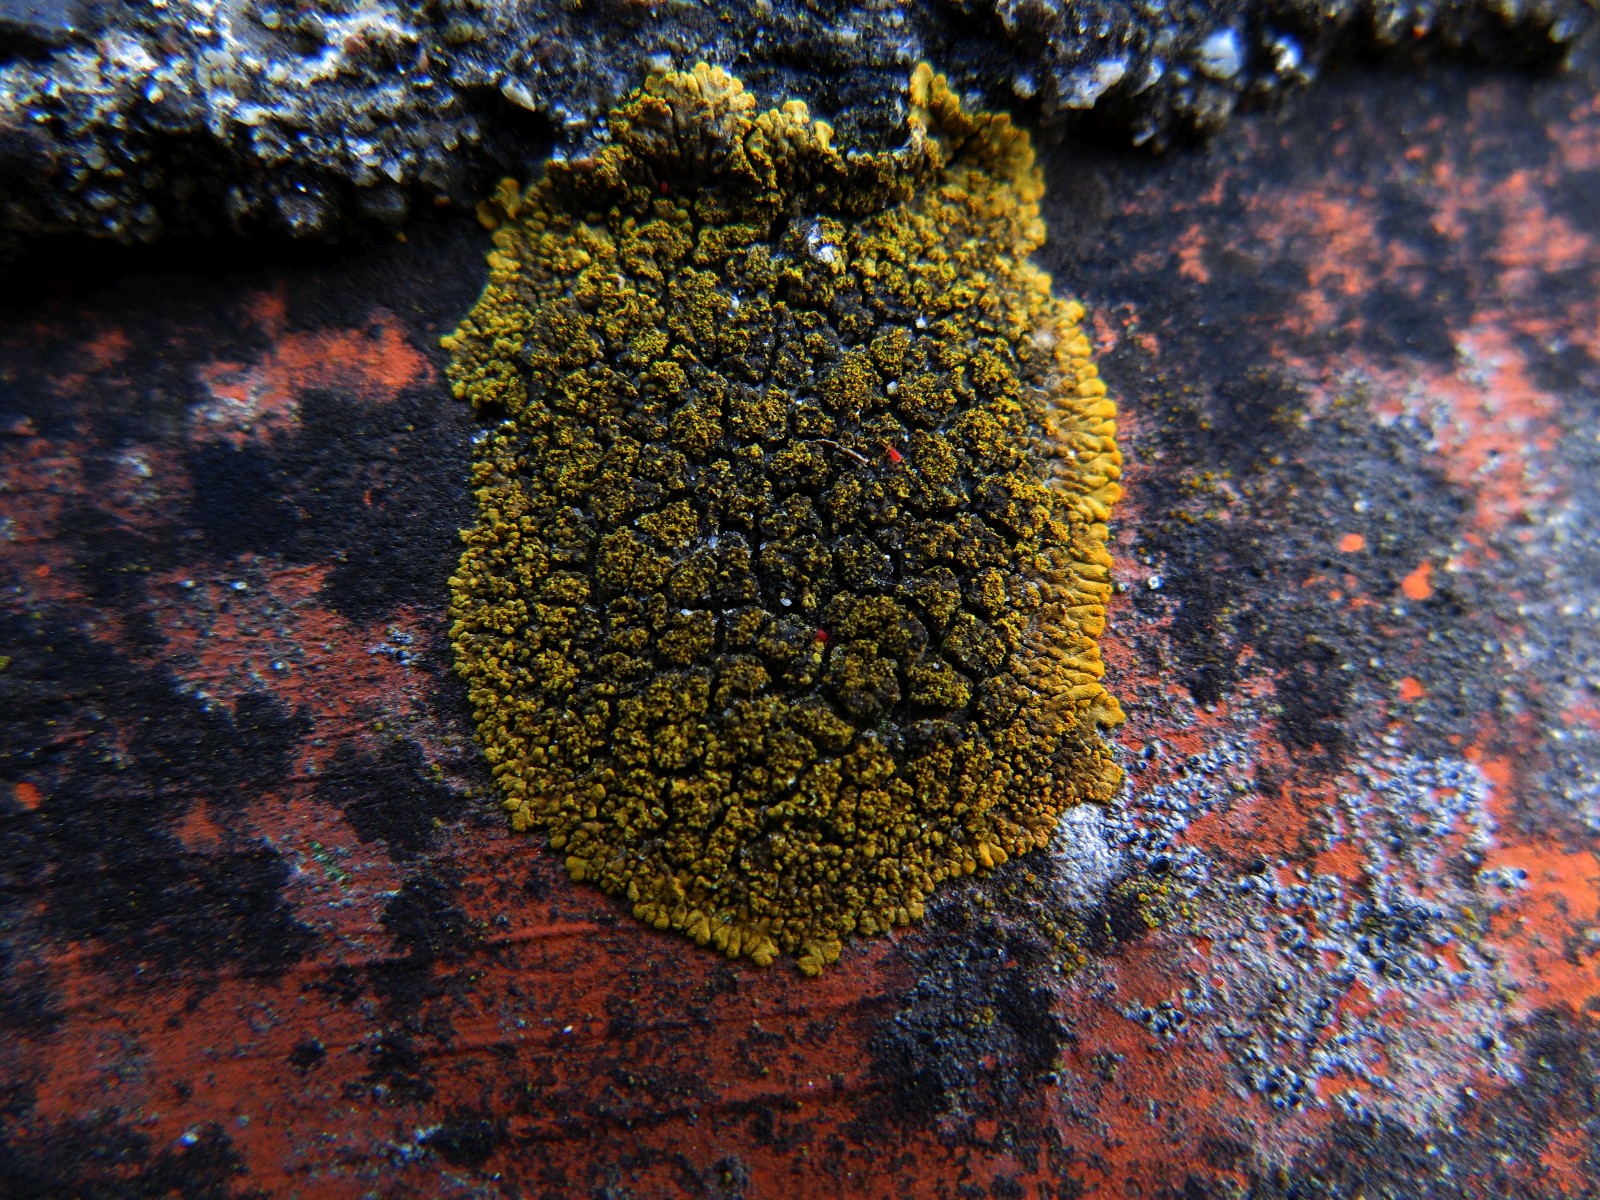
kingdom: Fungi
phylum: Ascomycota
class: Lecanoromycetes
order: Teloschistales
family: Teloschistaceae
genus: Calogaya
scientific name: Calogaya decipiens
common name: knudret orangelav
